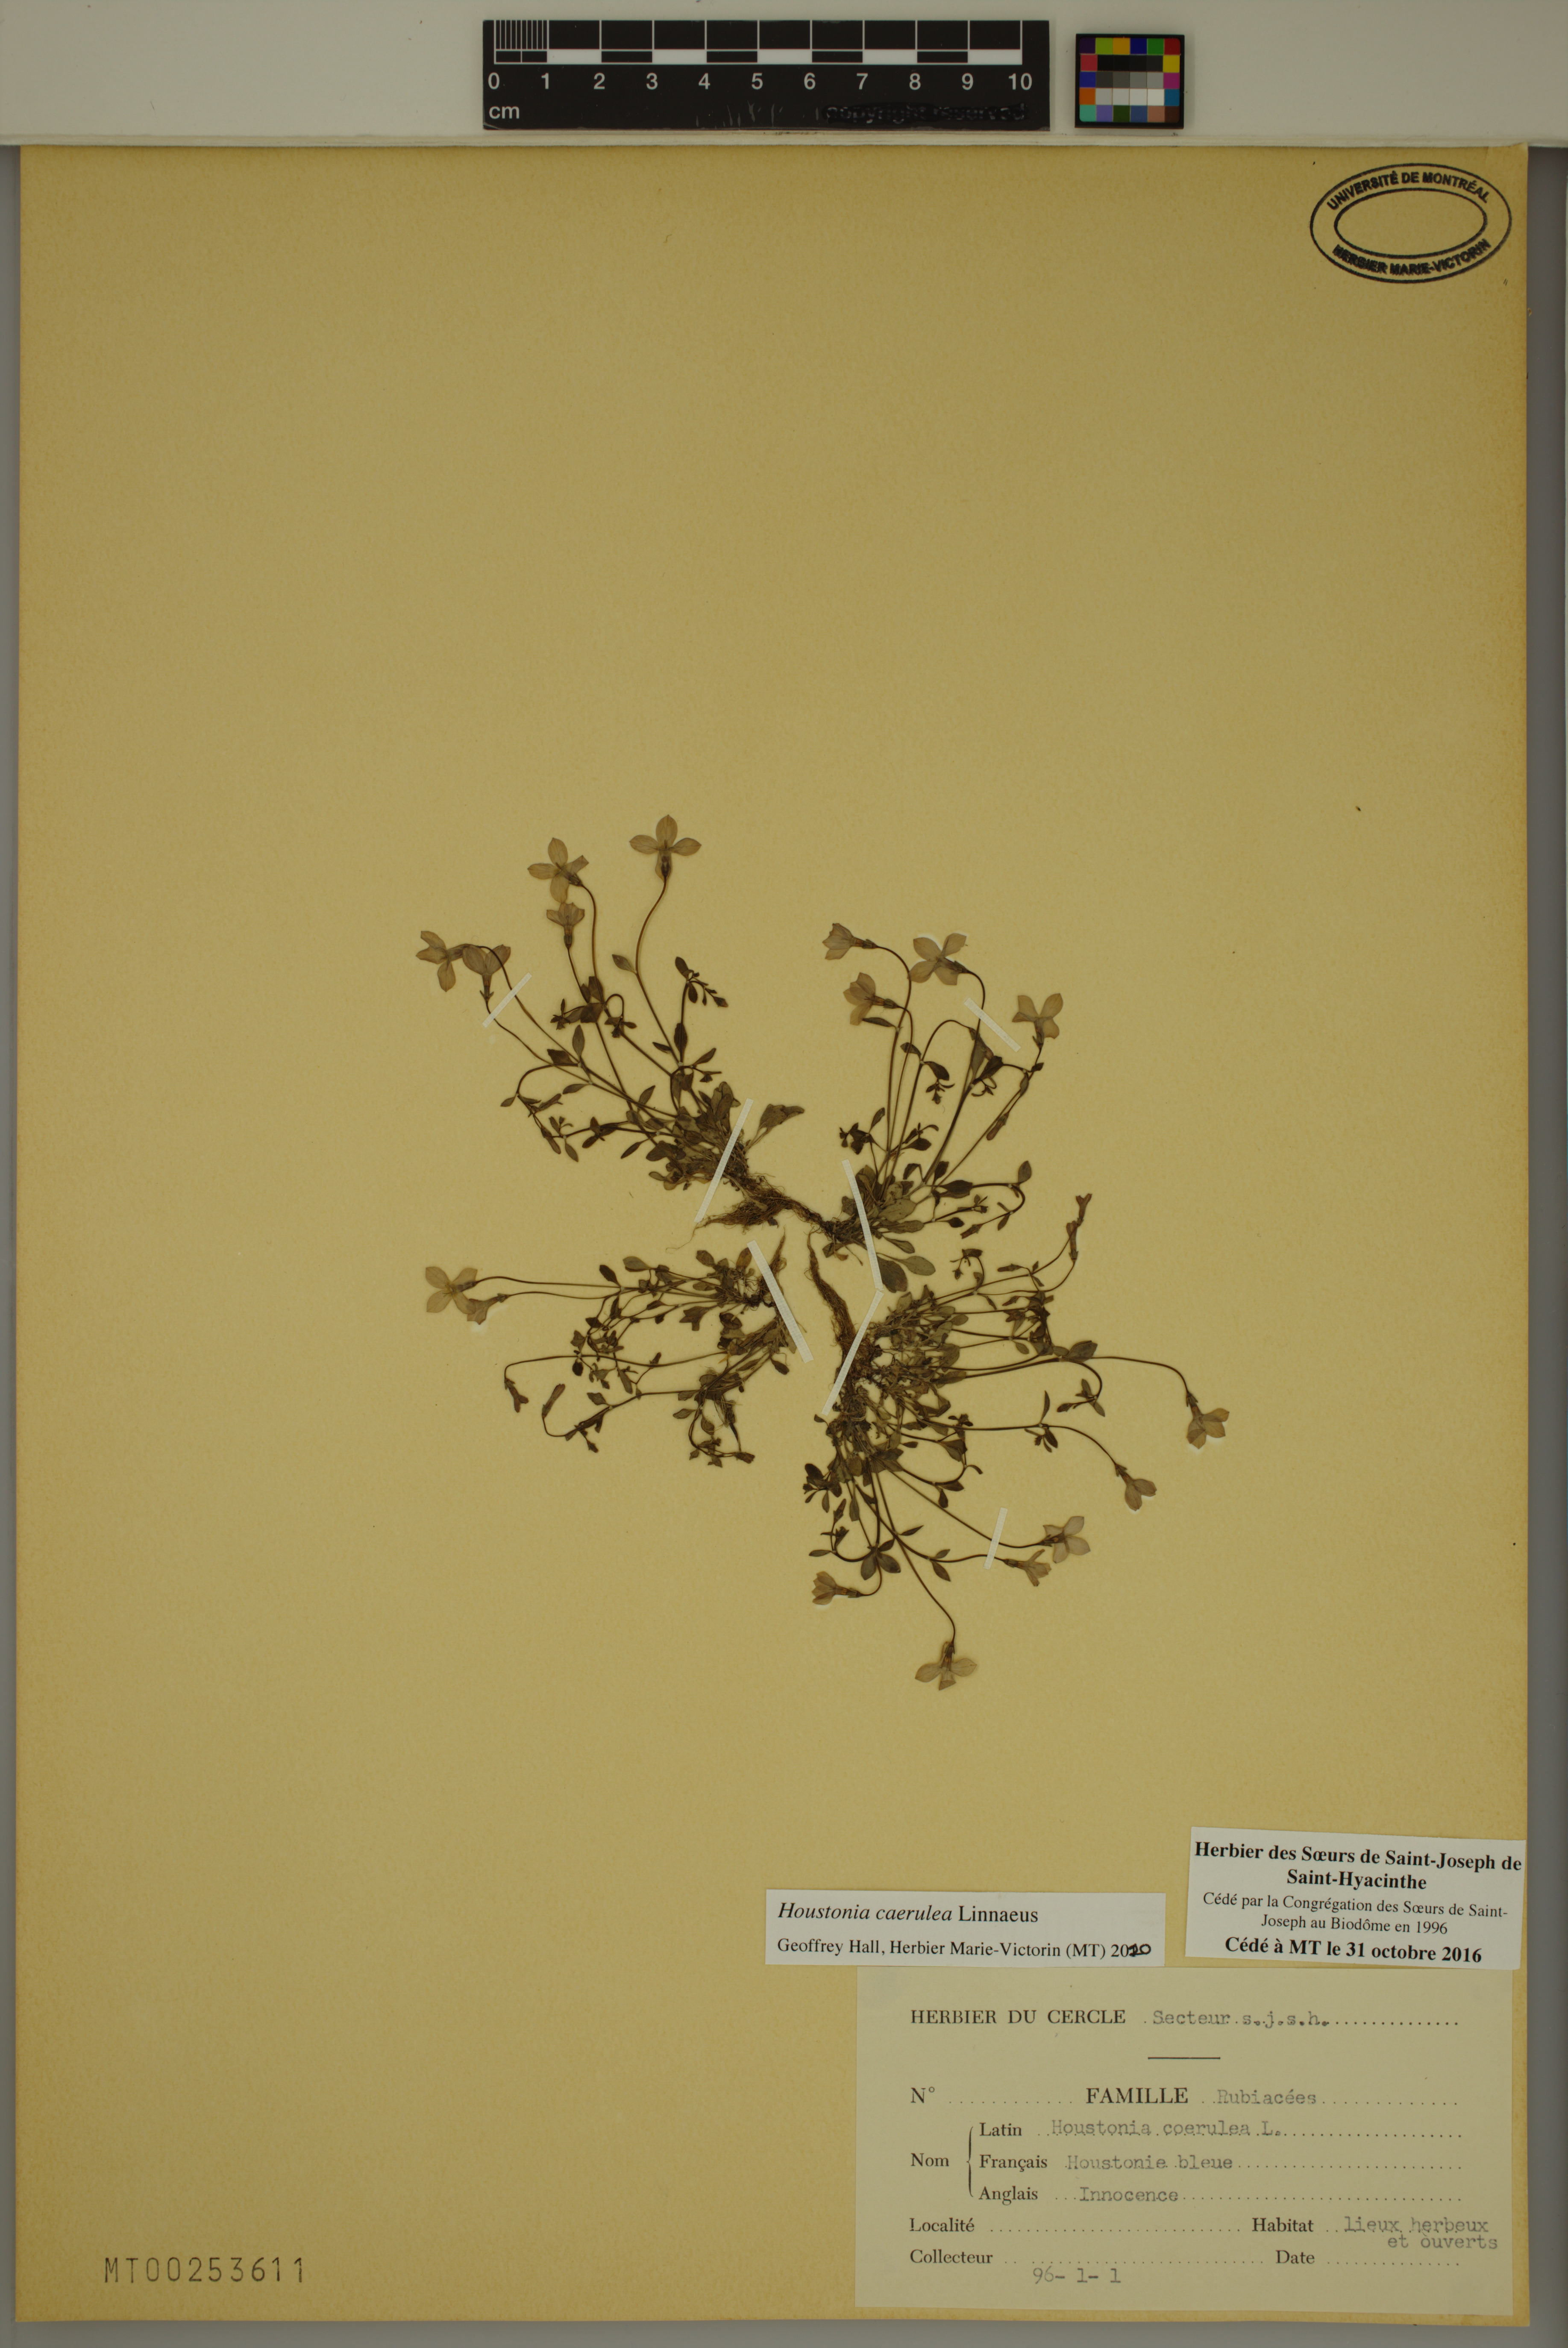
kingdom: Plantae
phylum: Tracheophyta
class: Magnoliopsida
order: Gentianales
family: Rubiaceae
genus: Houstonia
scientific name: Houstonia caerulea
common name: Bluets
